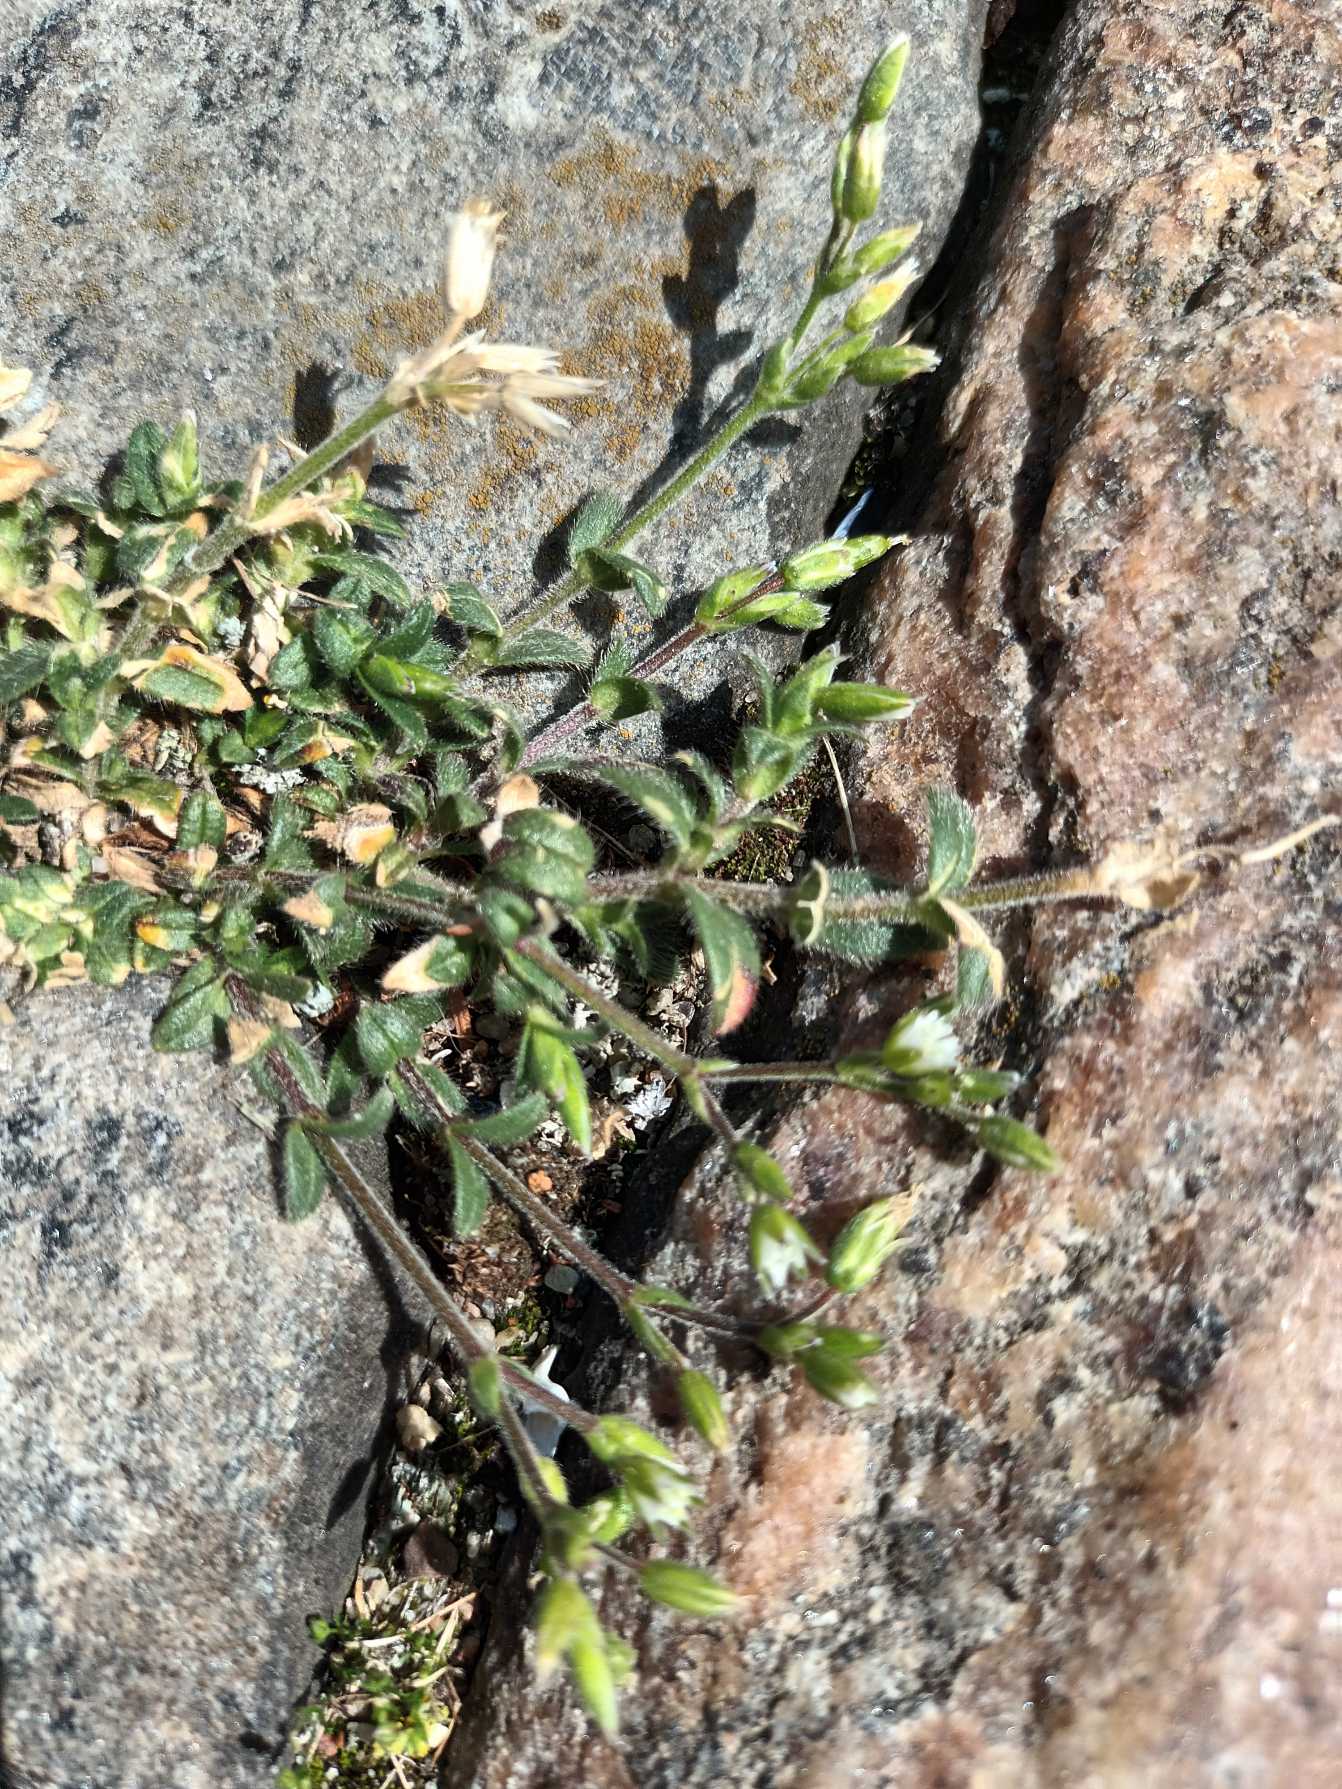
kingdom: Plantae
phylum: Tracheophyta
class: Magnoliopsida
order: Caryophyllales
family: Caryophyllaceae
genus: Cerastium
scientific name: Cerastium fontanum
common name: Almindelig hønsetarm
